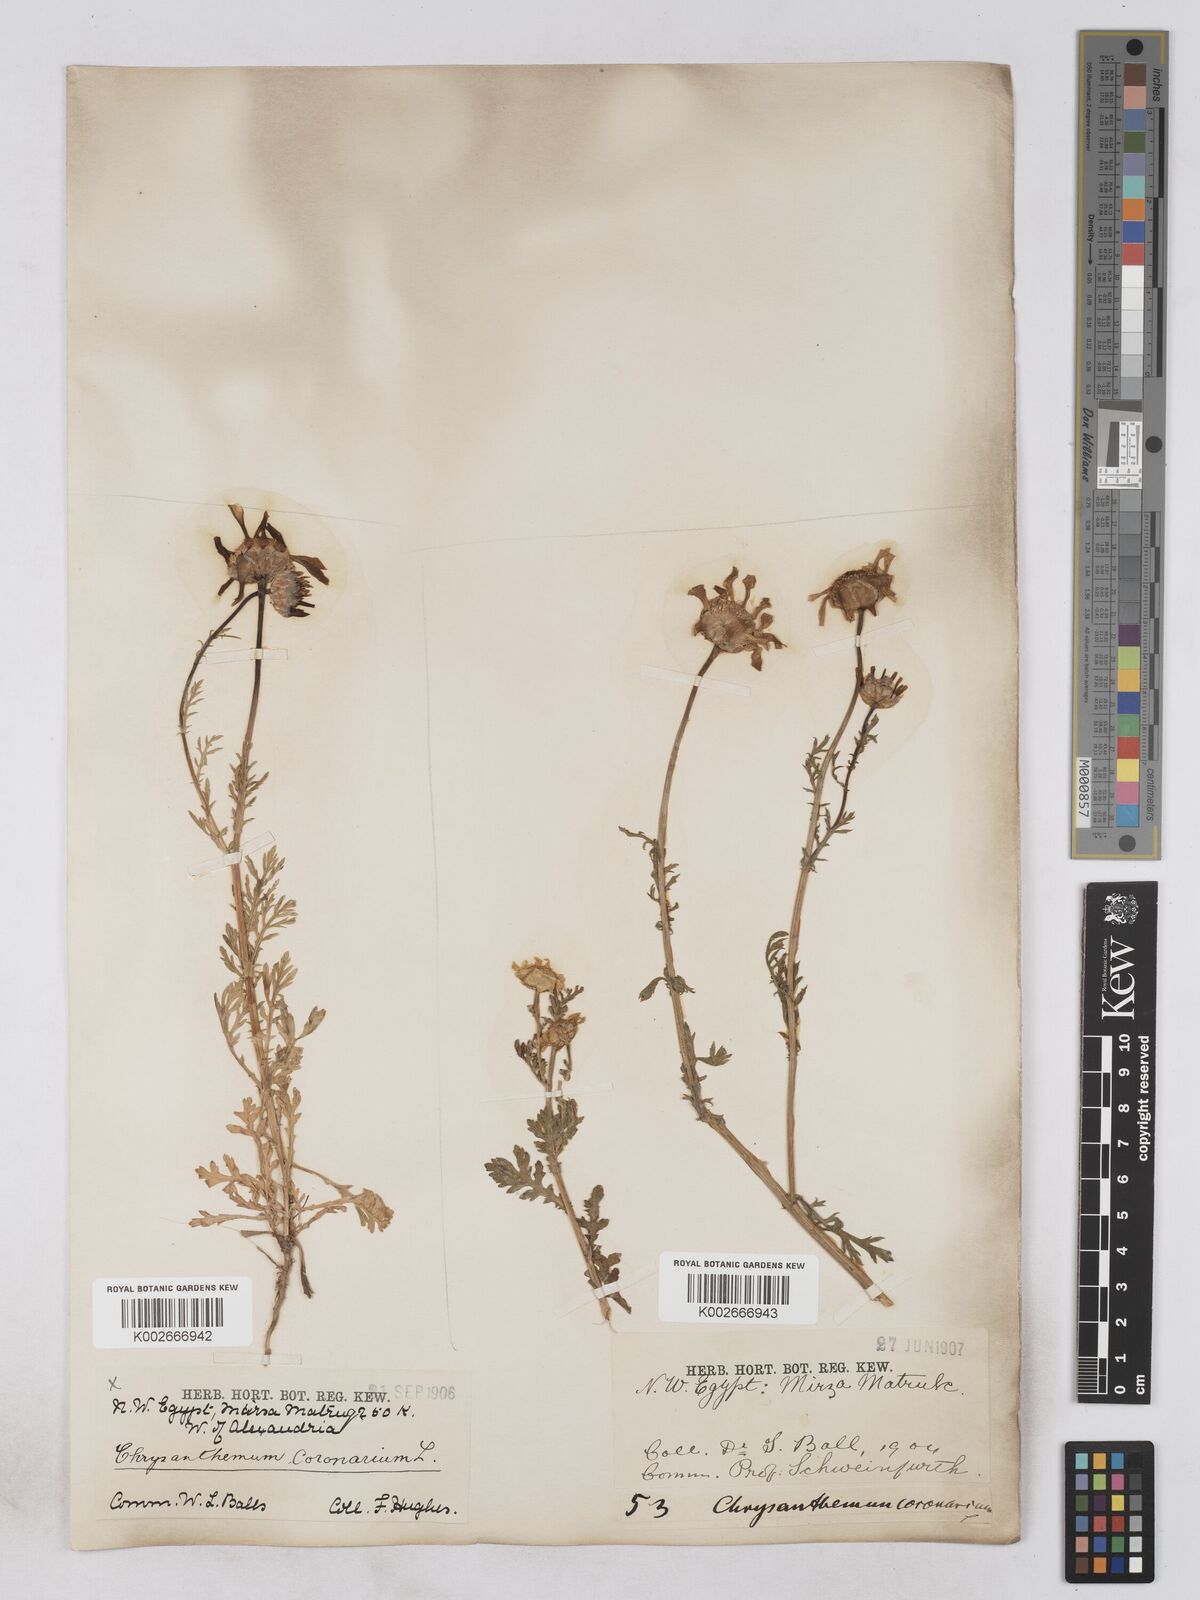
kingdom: Plantae
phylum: Tracheophyta
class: Magnoliopsida
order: Asterales
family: Asteraceae
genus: Glebionis
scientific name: Glebionis coronaria
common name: Crowndaisy
